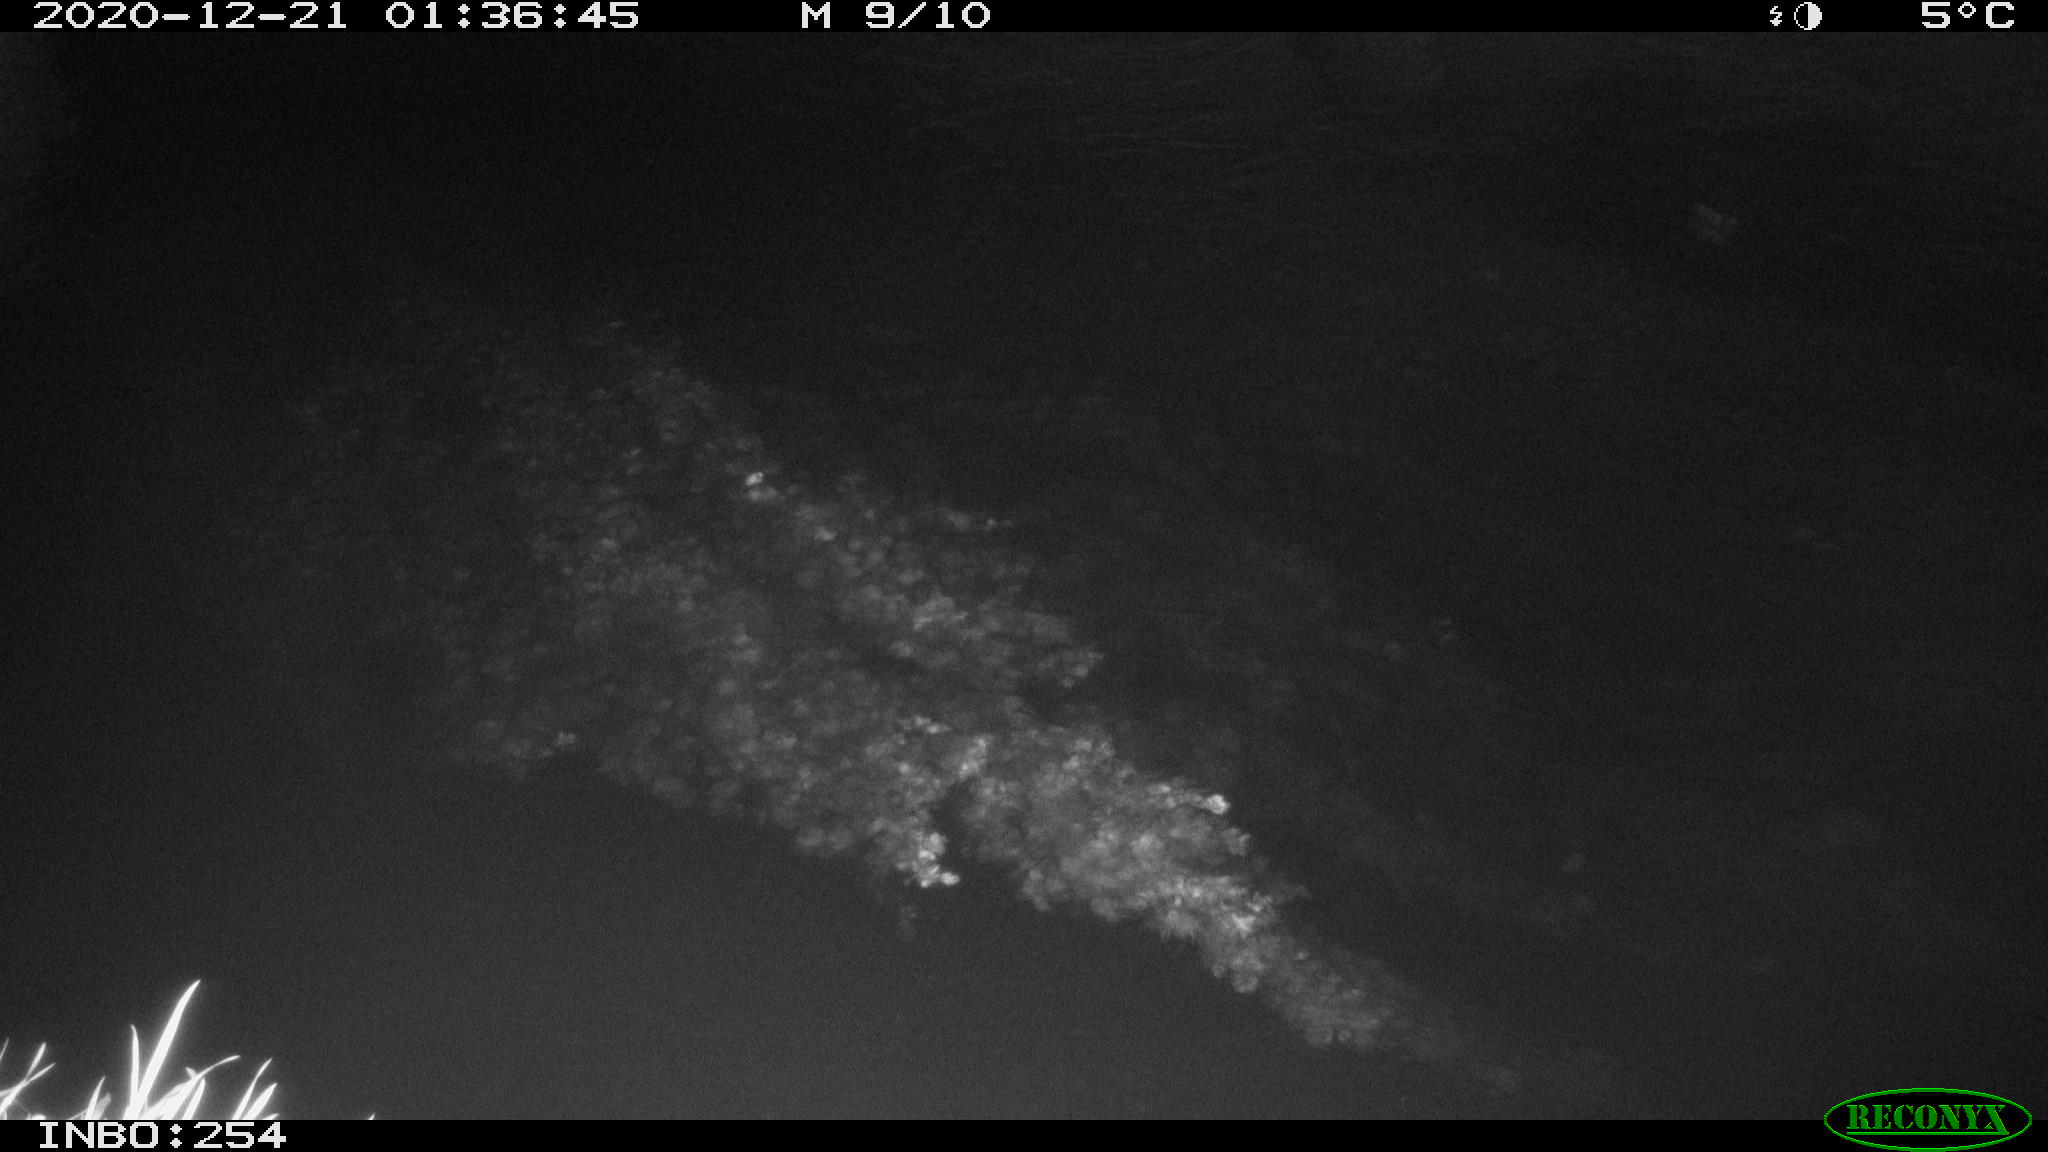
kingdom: Animalia
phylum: Chordata
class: Aves
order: Anseriformes
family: Anatidae
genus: Anas
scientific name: Anas platyrhynchos
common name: Mallard
